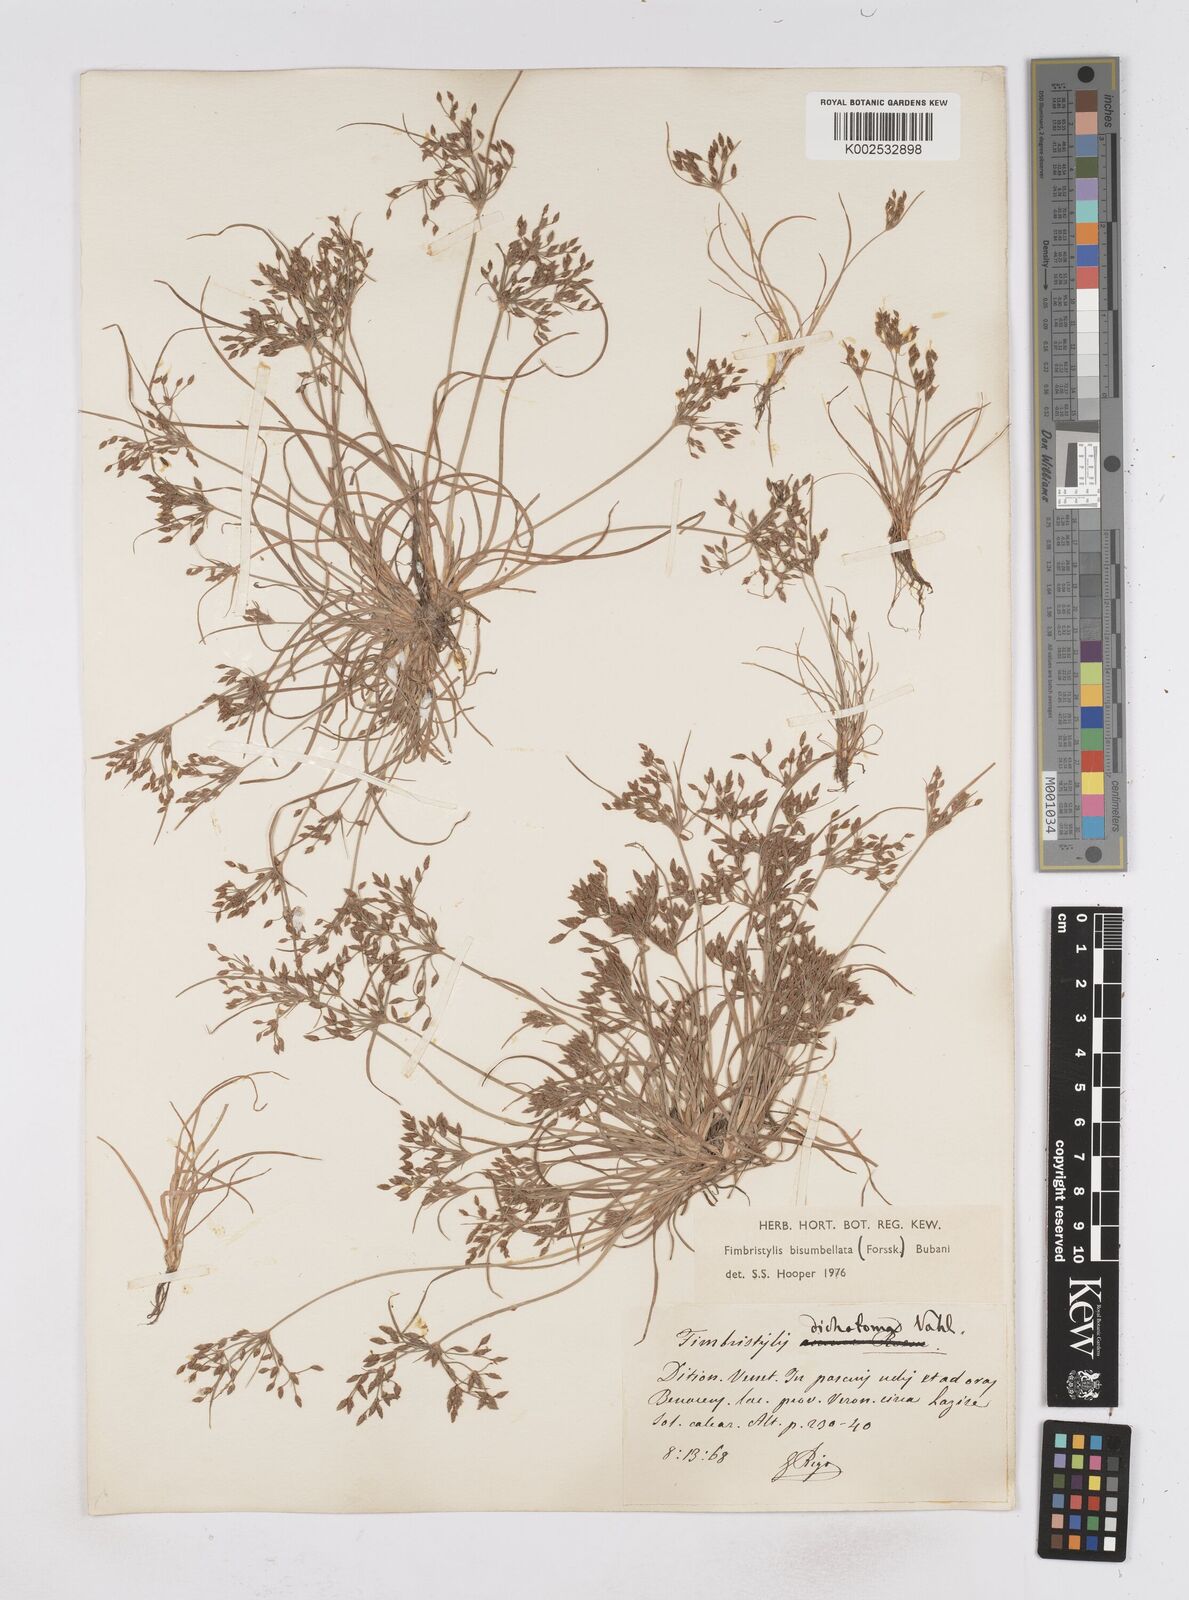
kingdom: Plantae
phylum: Tracheophyta
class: Liliopsida
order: Poales
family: Cyperaceae
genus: Fimbristylis
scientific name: Fimbristylis bisumbellata
